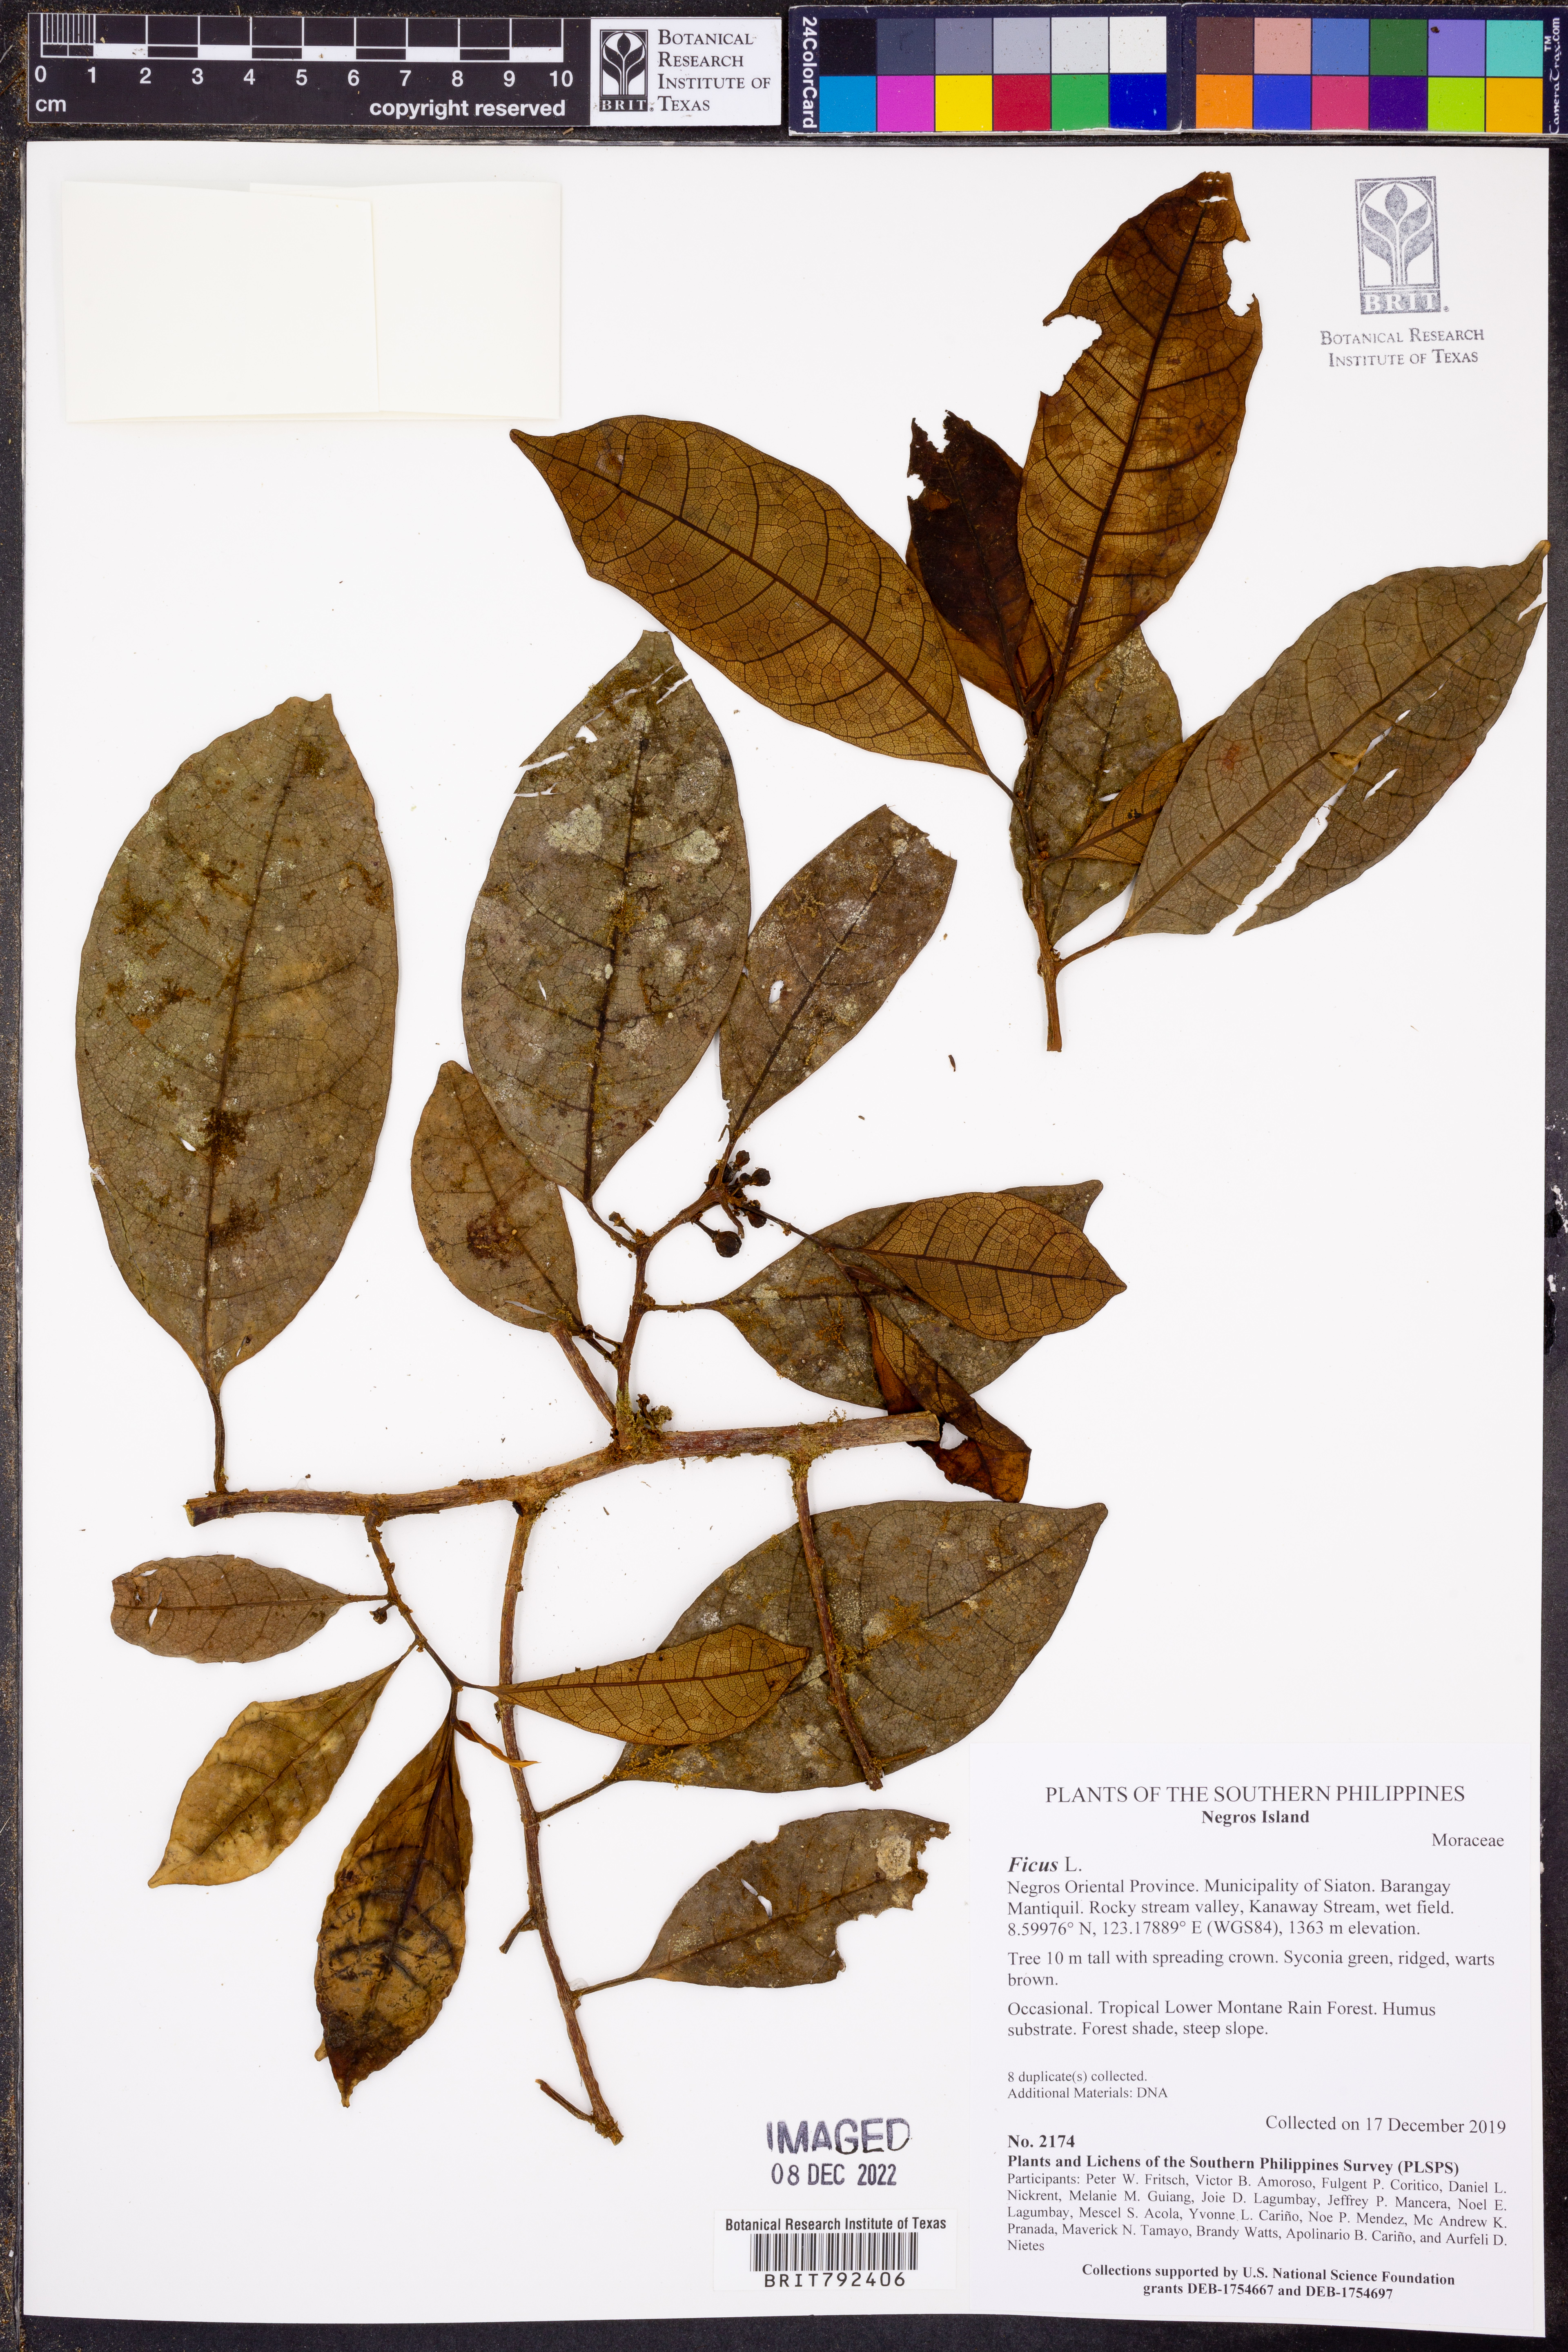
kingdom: Plantae
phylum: Tracheophyta
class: Magnoliopsida
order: Rosales
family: Moraceae
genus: Ficus
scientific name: Ficus
